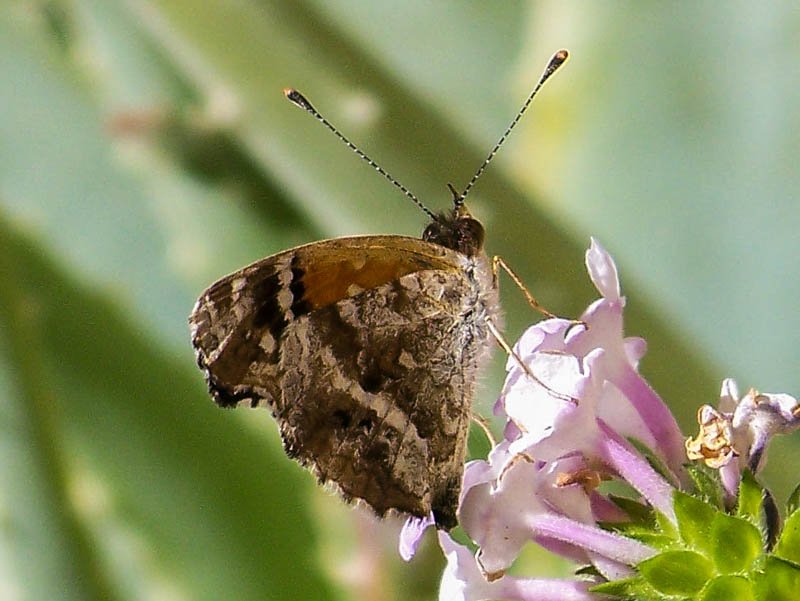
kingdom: Animalia
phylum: Arthropoda
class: Insecta
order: Lepidoptera
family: Nymphalidae
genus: Anthanassa
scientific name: Anthanassa texana
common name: Texan Crescent
